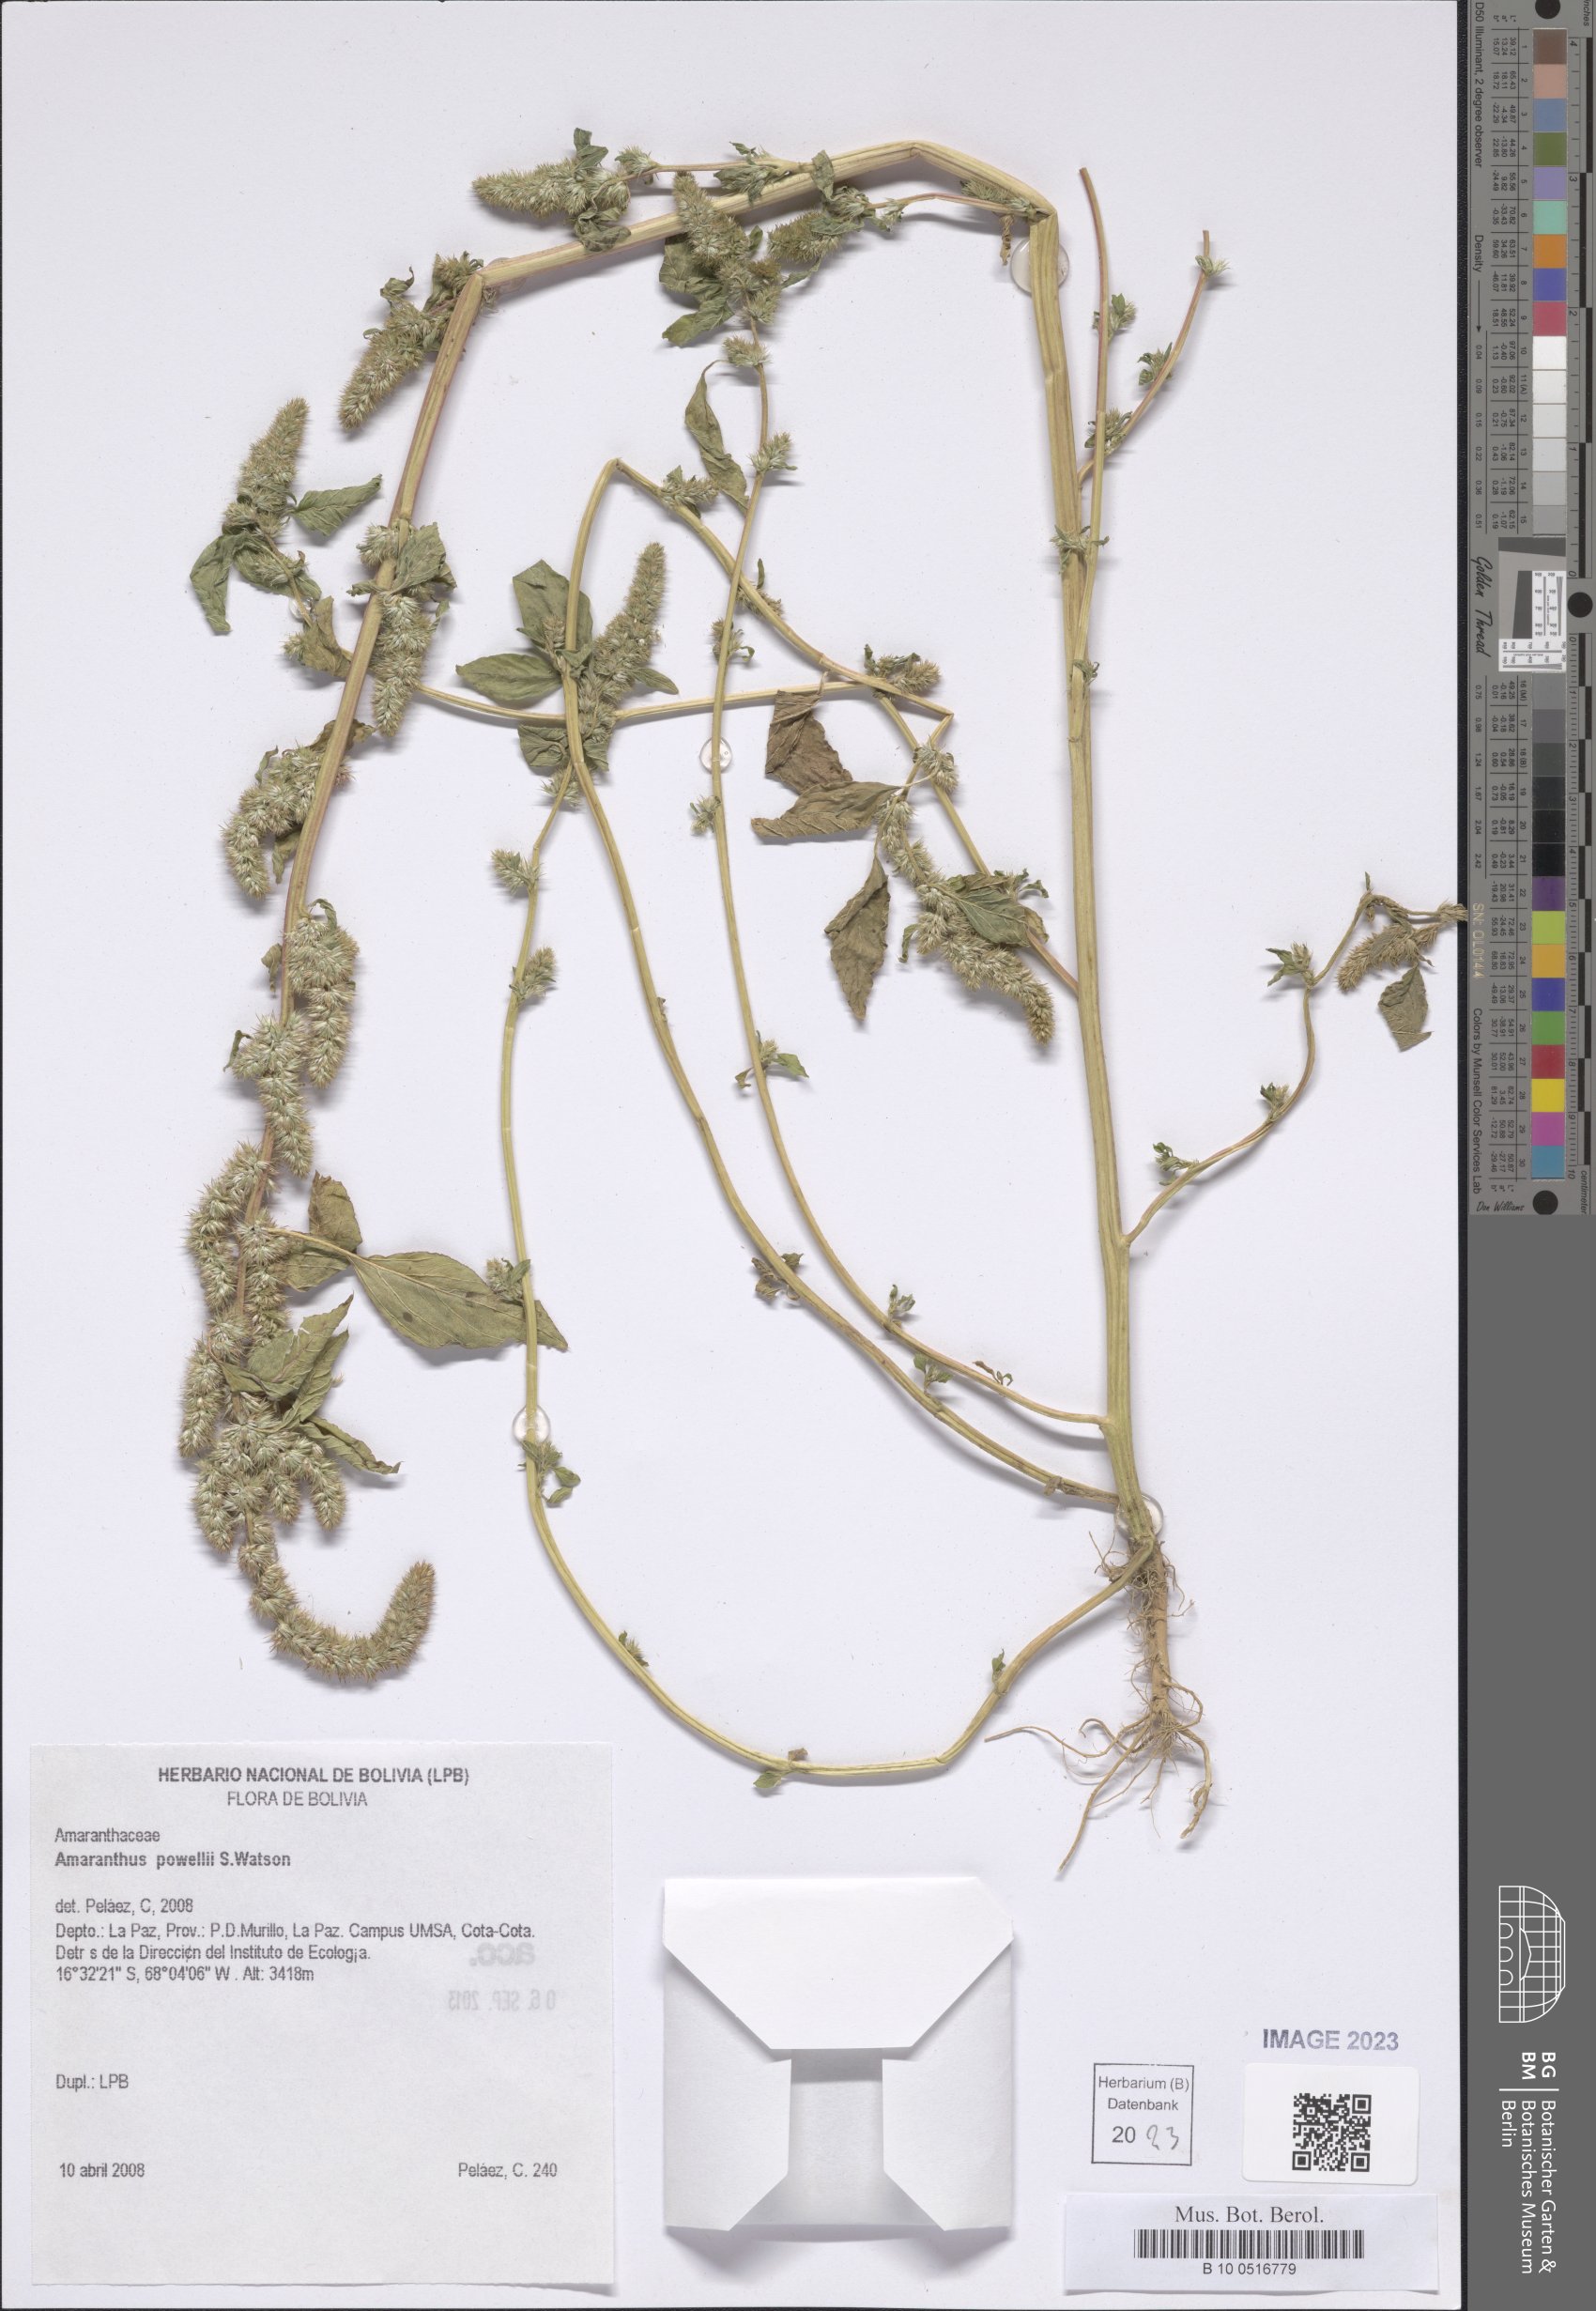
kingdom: Plantae
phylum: Tracheophyta
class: Magnoliopsida
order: Caryophyllales
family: Amaranthaceae
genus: Amaranthus
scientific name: Amaranthus powellii
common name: Powell's amaranth
